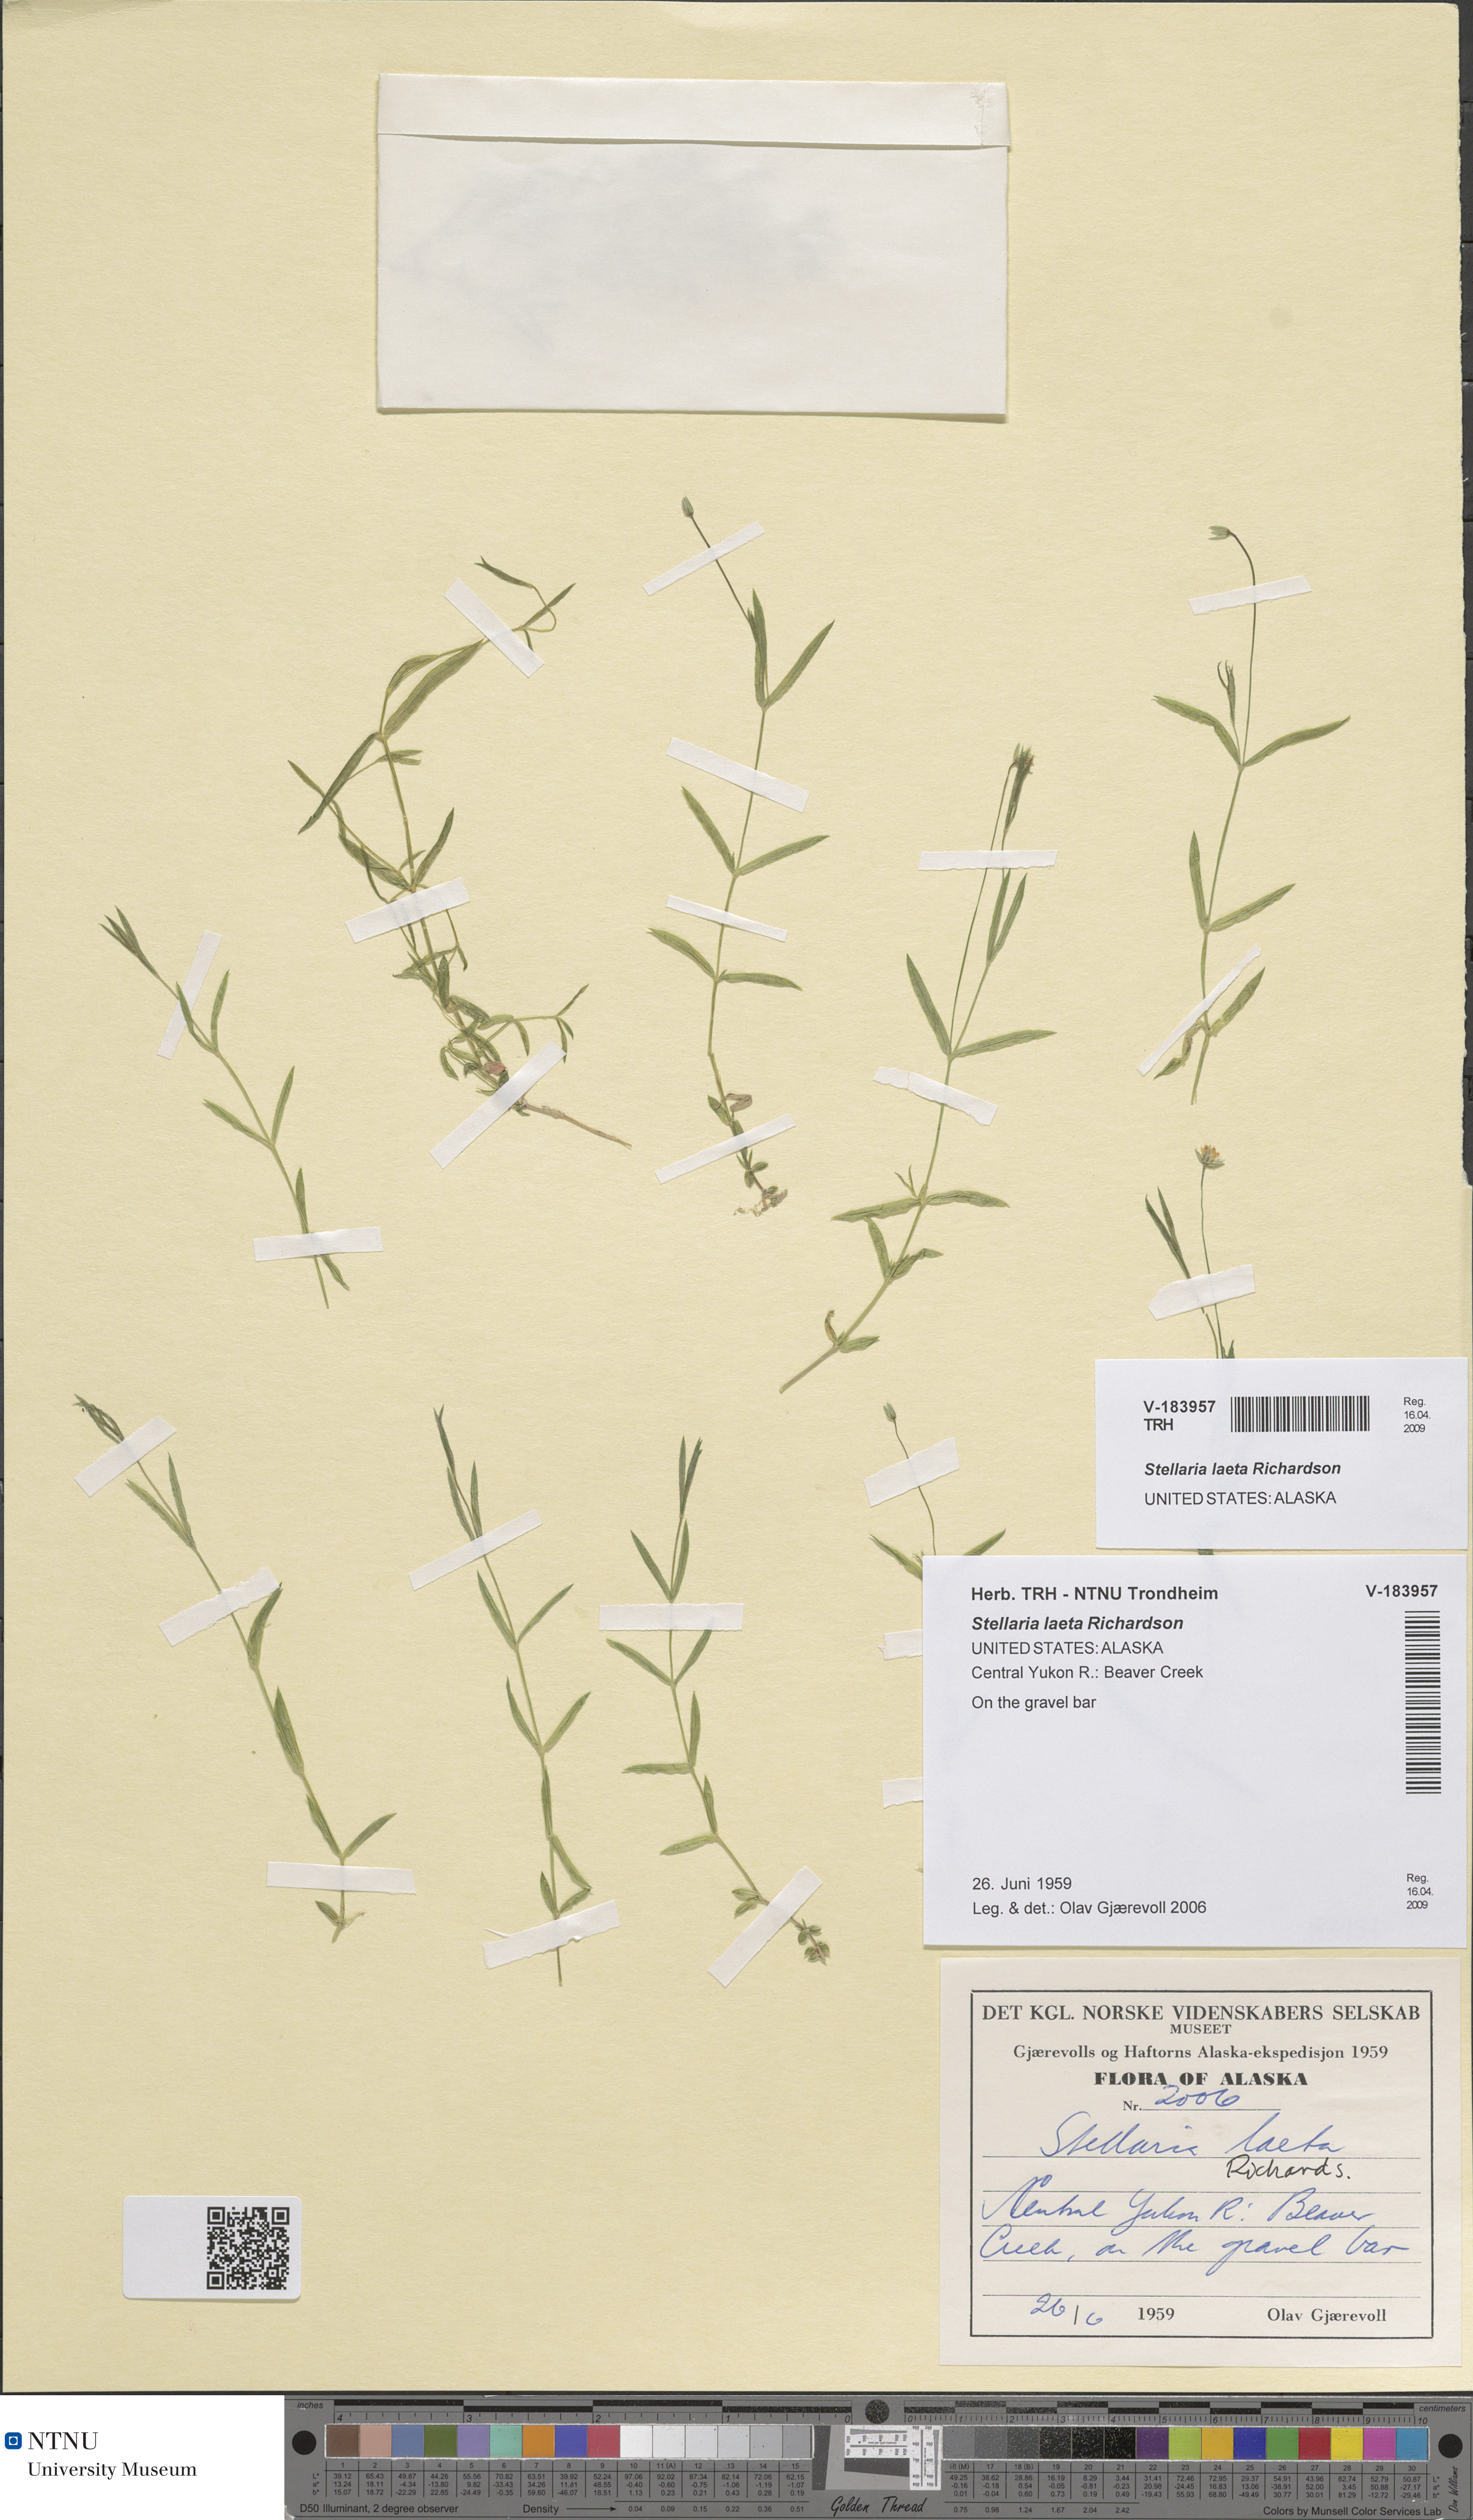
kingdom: Plantae
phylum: Tracheophyta
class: Magnoliopsida
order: Caryophyllales
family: Caryophyllaceae
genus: Stellaria
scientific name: Stellaria laeta
